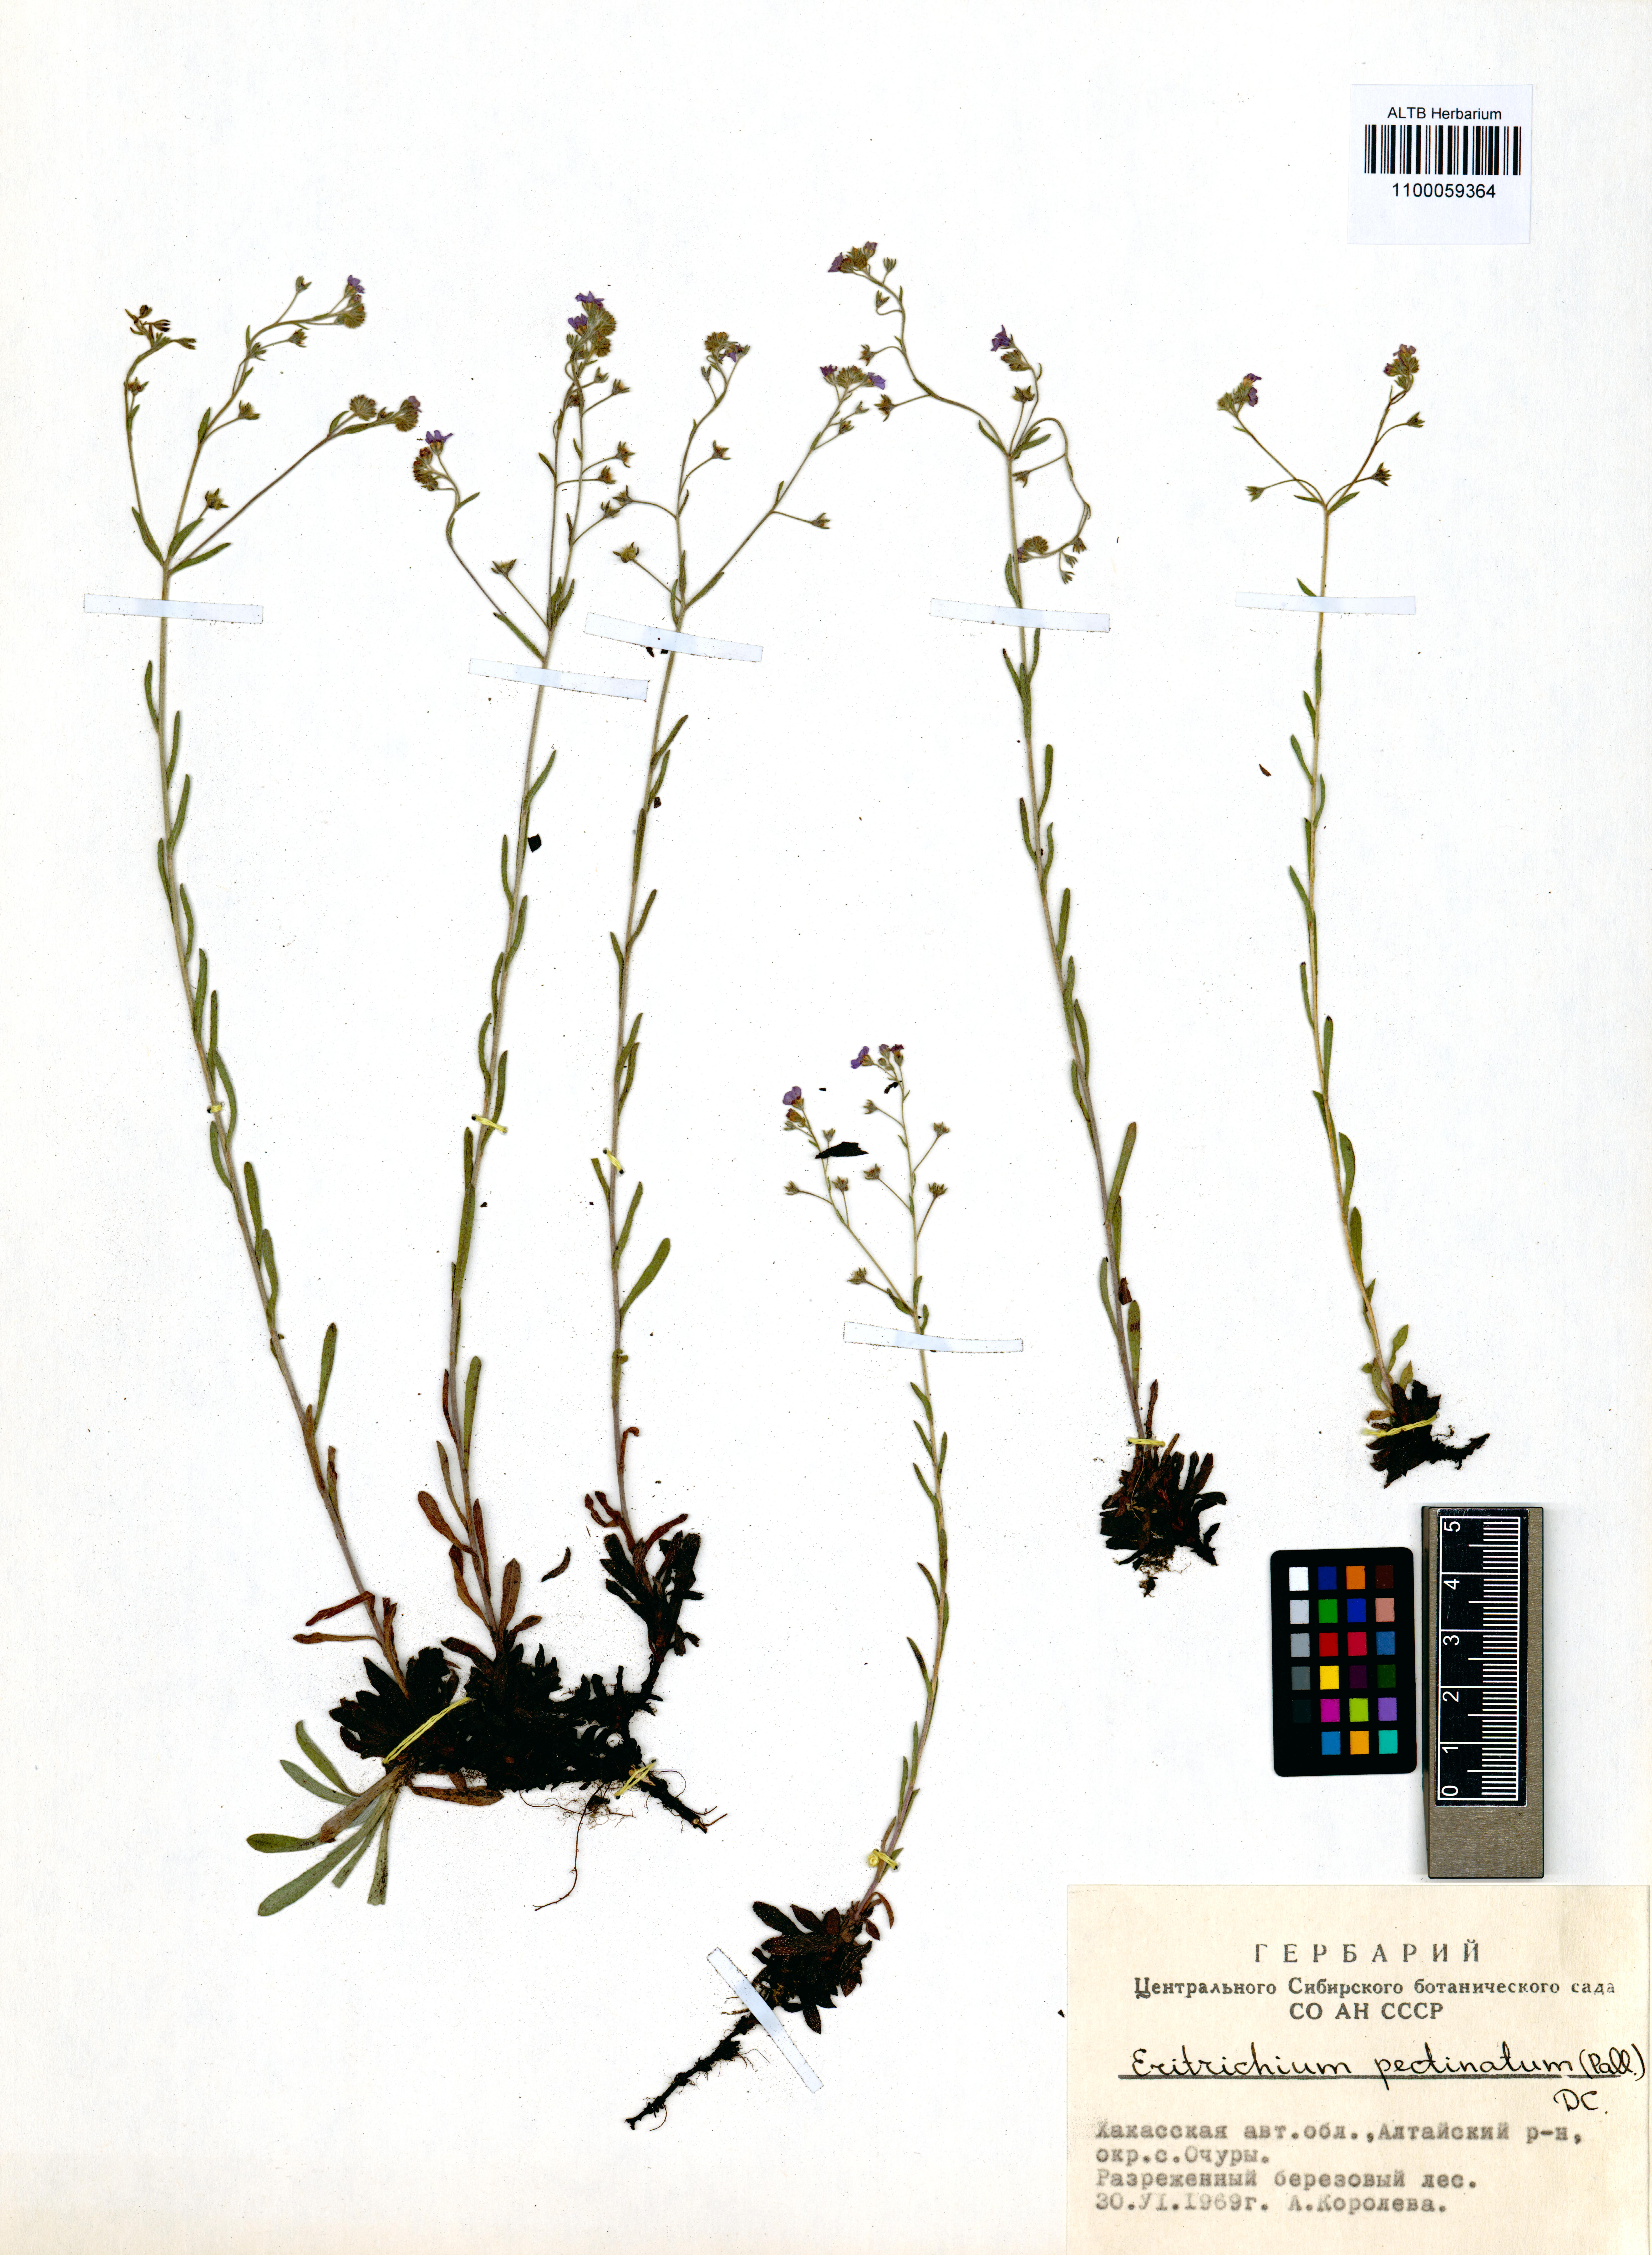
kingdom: Plantae
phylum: Tracheophyta
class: Magnoliopsida
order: Boraginales
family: Boraginaceae
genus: Eritrichium
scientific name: Eritrichium pectinatum
